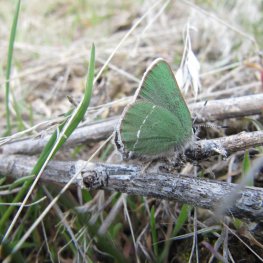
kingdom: Animalia
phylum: Arthropoda
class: Insecta
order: Lepidoptera
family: Lycaenidae
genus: Callophrys
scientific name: Callophrys affinis
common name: Western Green Hairstreak
